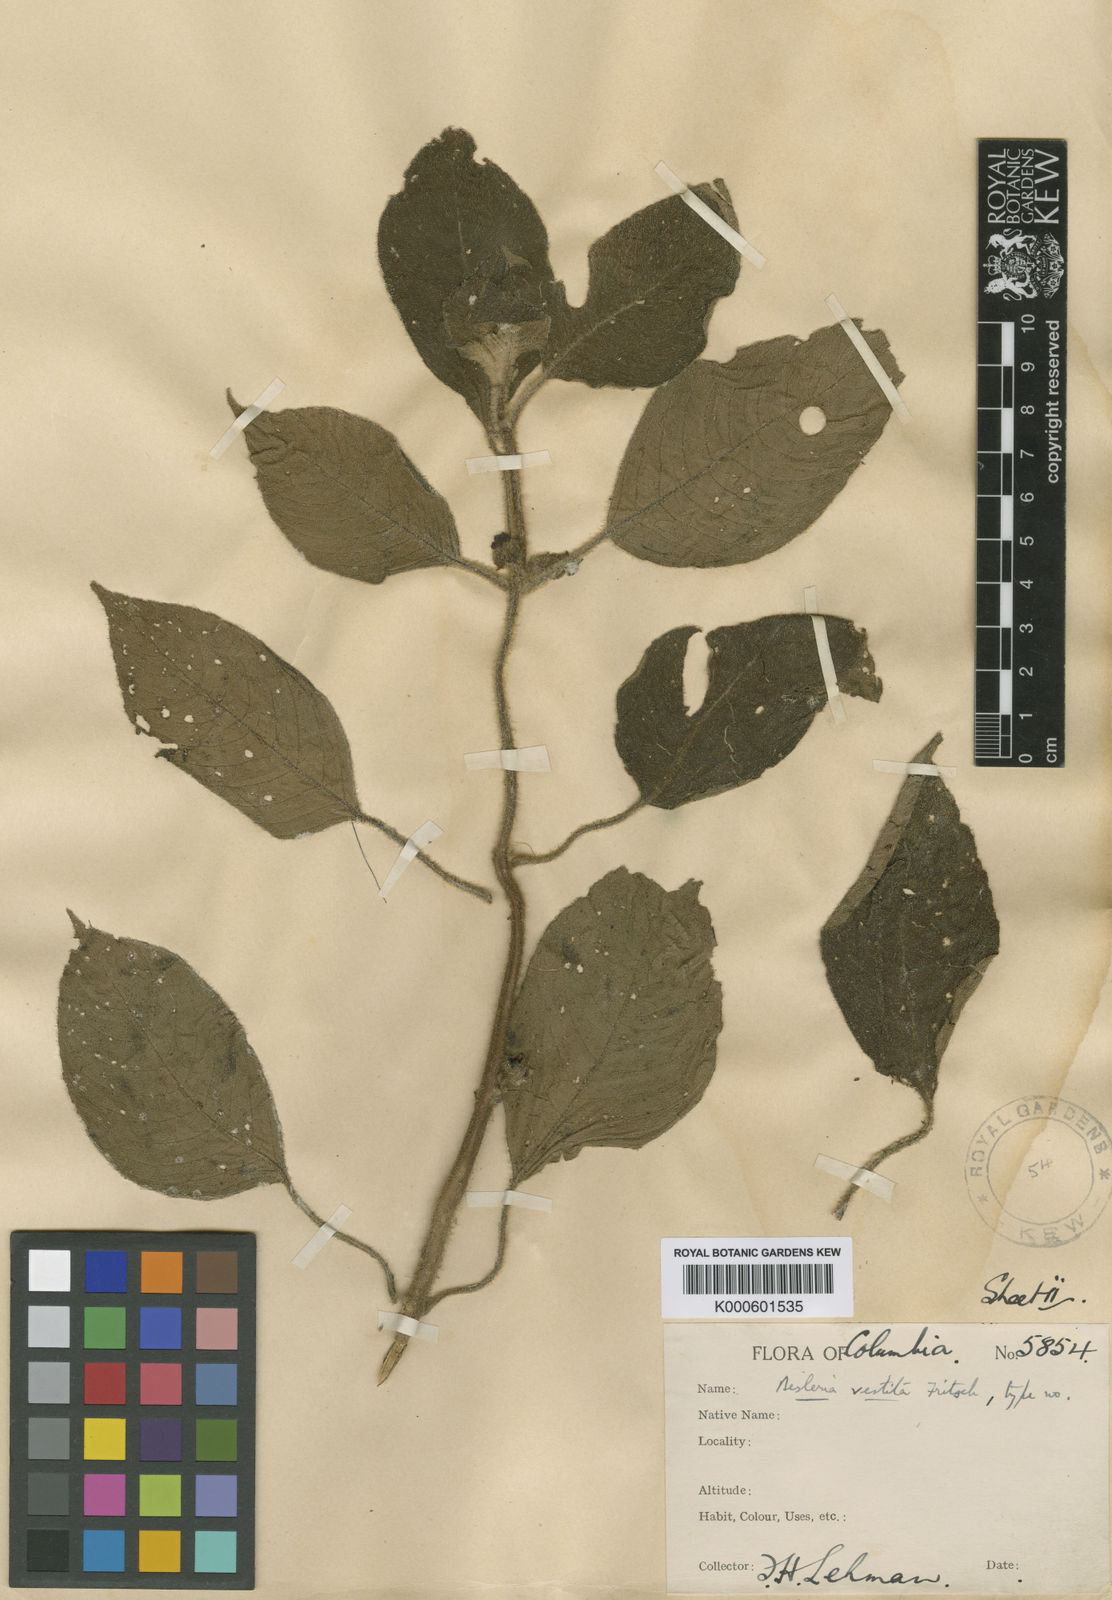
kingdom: Plantae
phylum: Tracheophyta
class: Magnoliopsida
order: Lamiales
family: Gesneriaceae
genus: Besleria
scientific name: Besleria vestita
